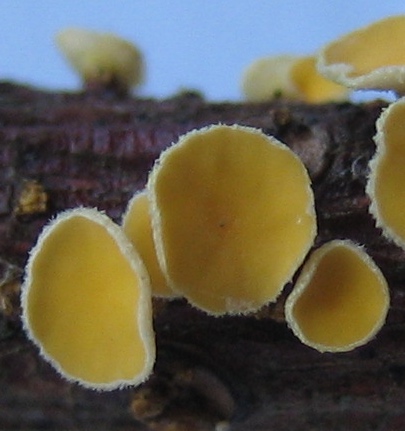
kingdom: Fungi
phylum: Ascomycota
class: Leotiomycetes
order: Helotiales
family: Lachnaceae
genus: Lachnellula
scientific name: Lachnellula
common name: frynseskive
